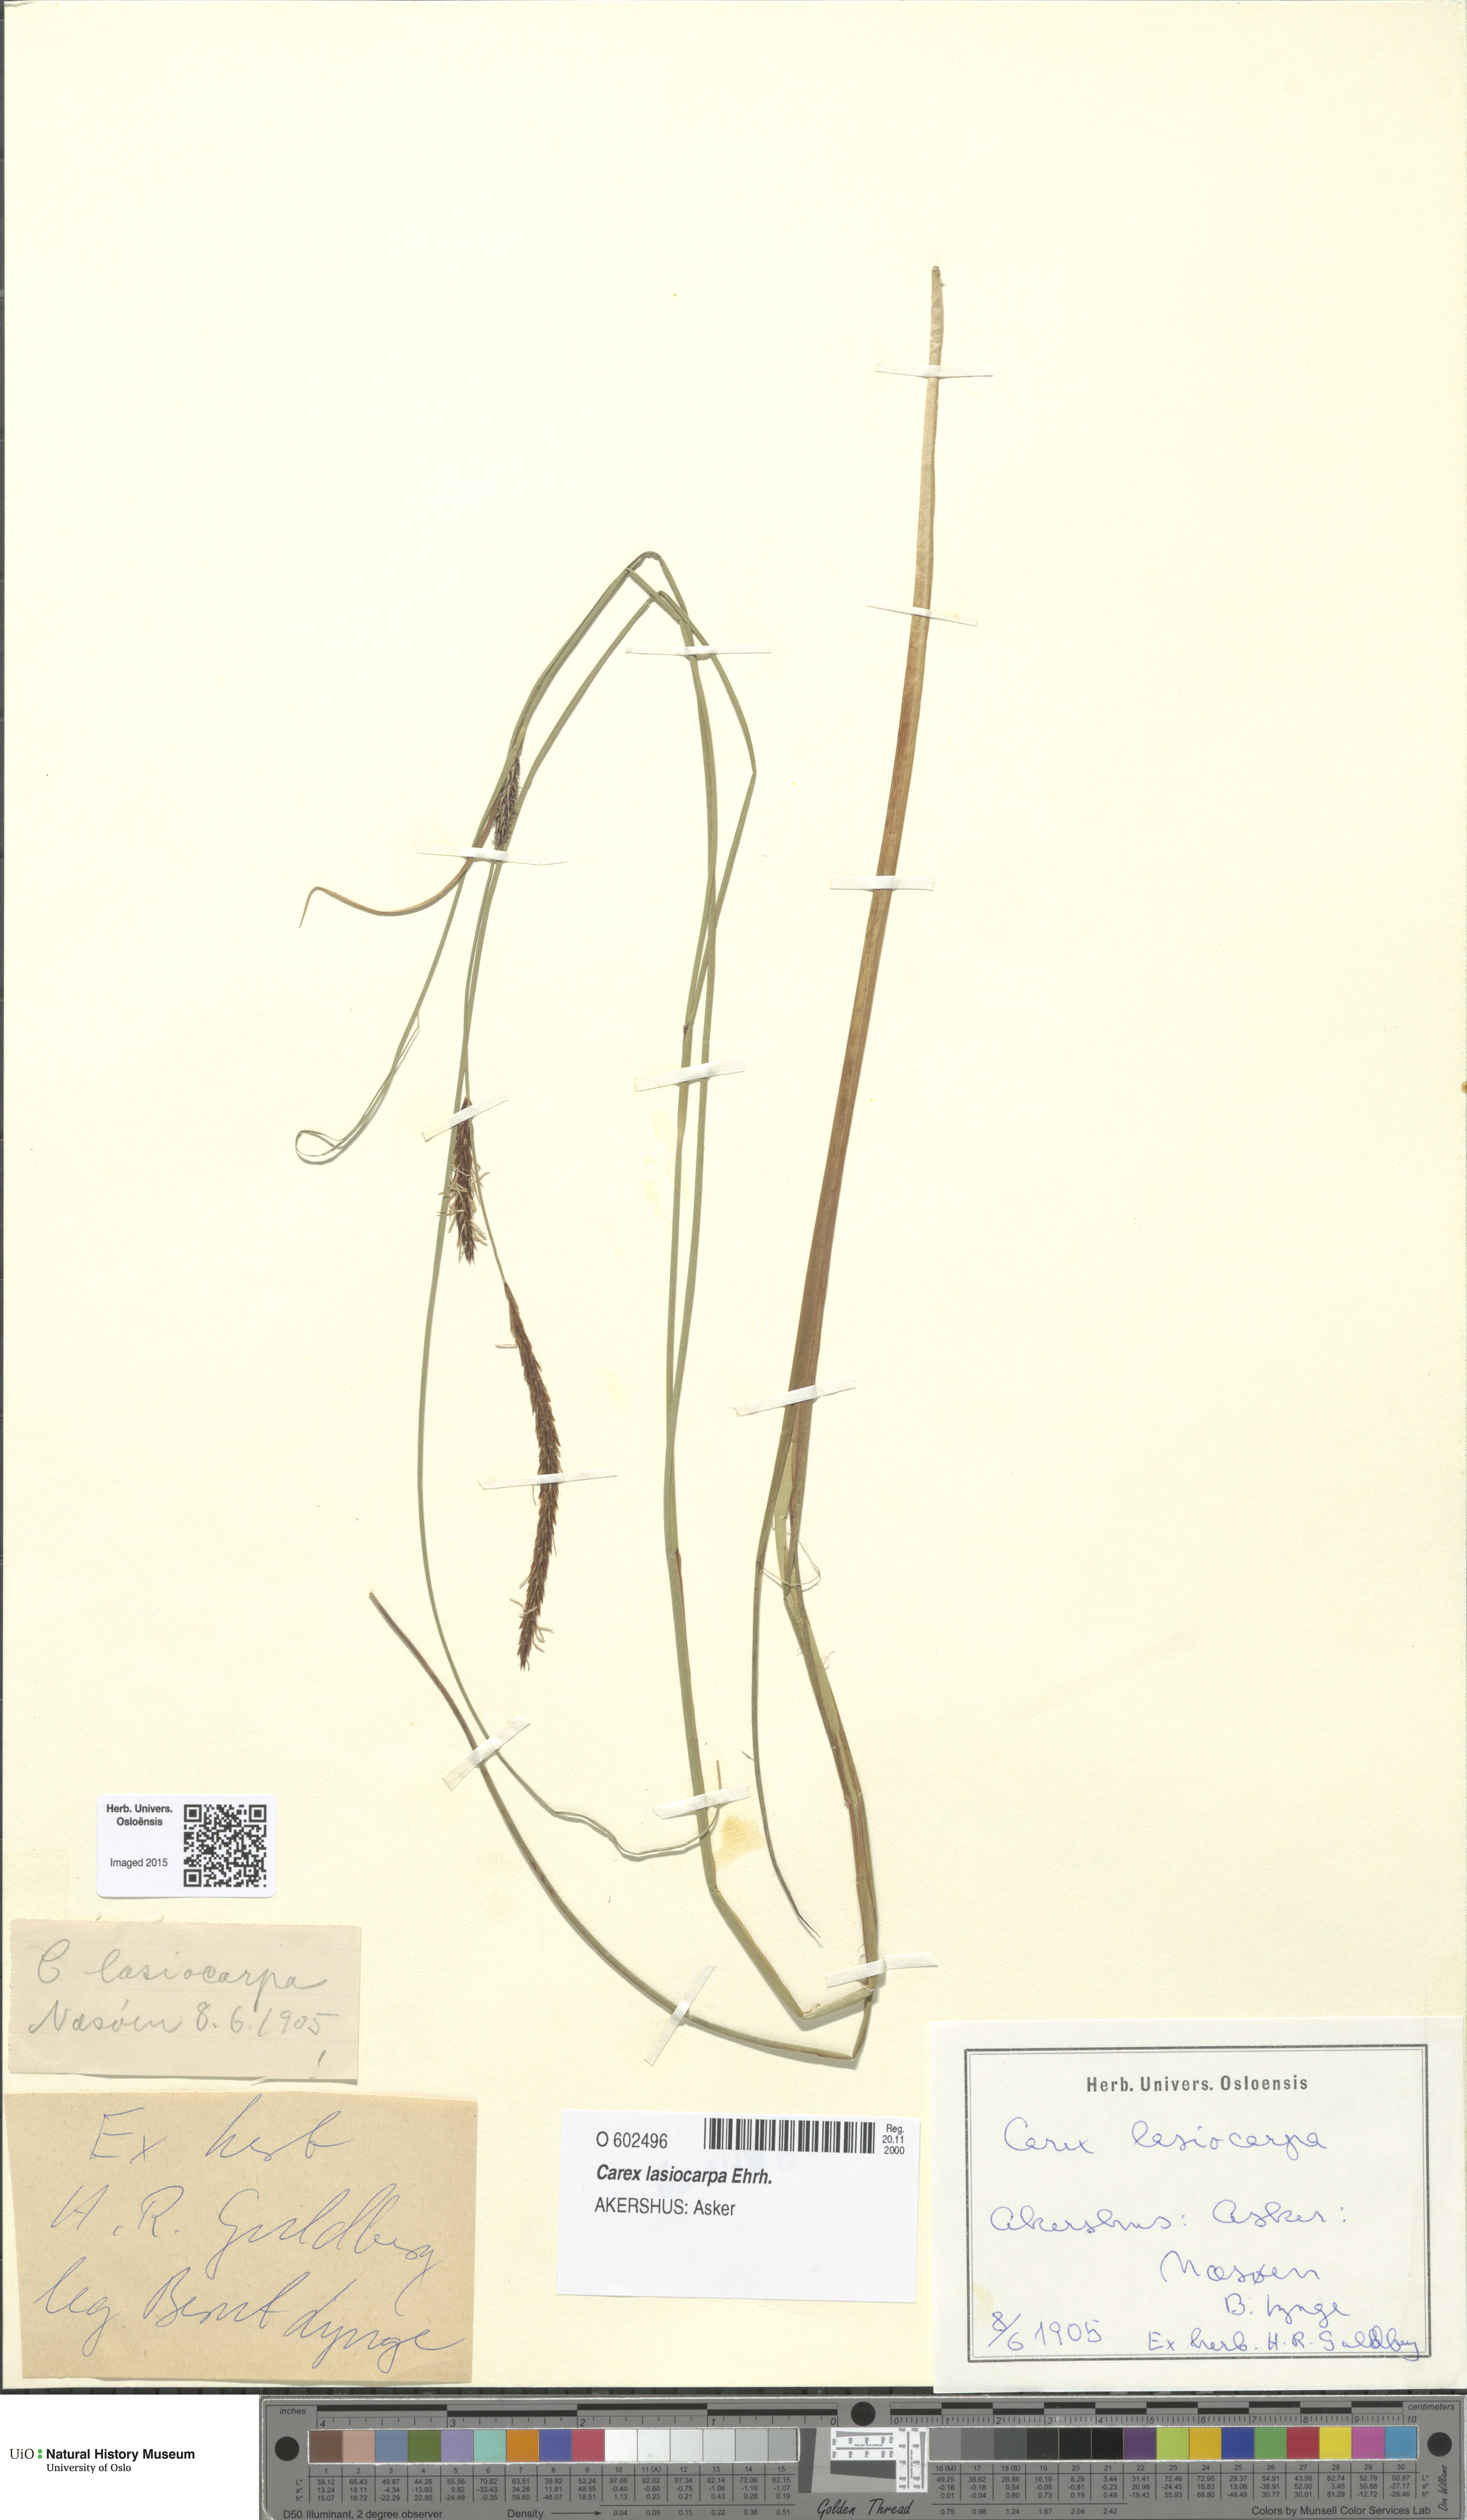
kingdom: Plantae
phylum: Tracheophyta
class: Liliopsida
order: Poales
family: Cyperaceae
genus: Carex
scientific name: Carex lasiocarpa
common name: Slender sedge
